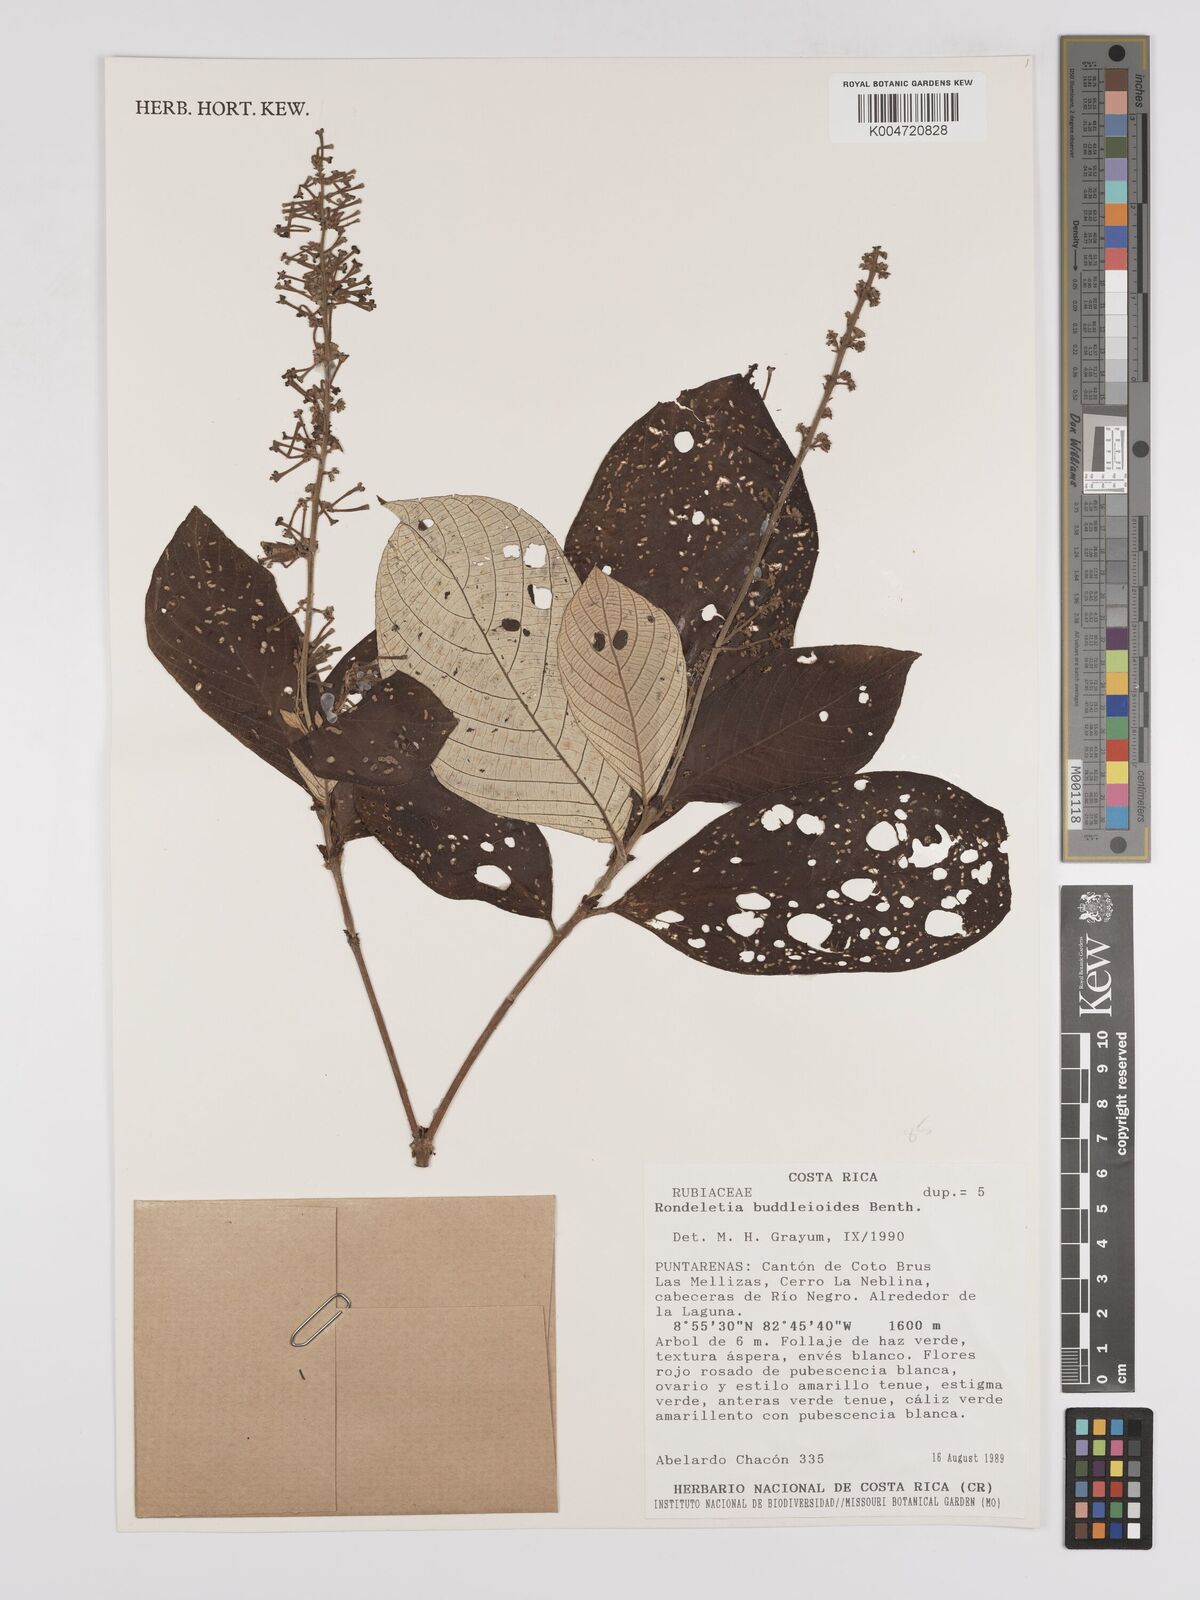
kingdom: Plantae
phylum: Tracheophyta
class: Magnoliopsida
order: Gentianales
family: Rubiaceae
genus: Arachnothryx
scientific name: Arachnothryx buddleioides
